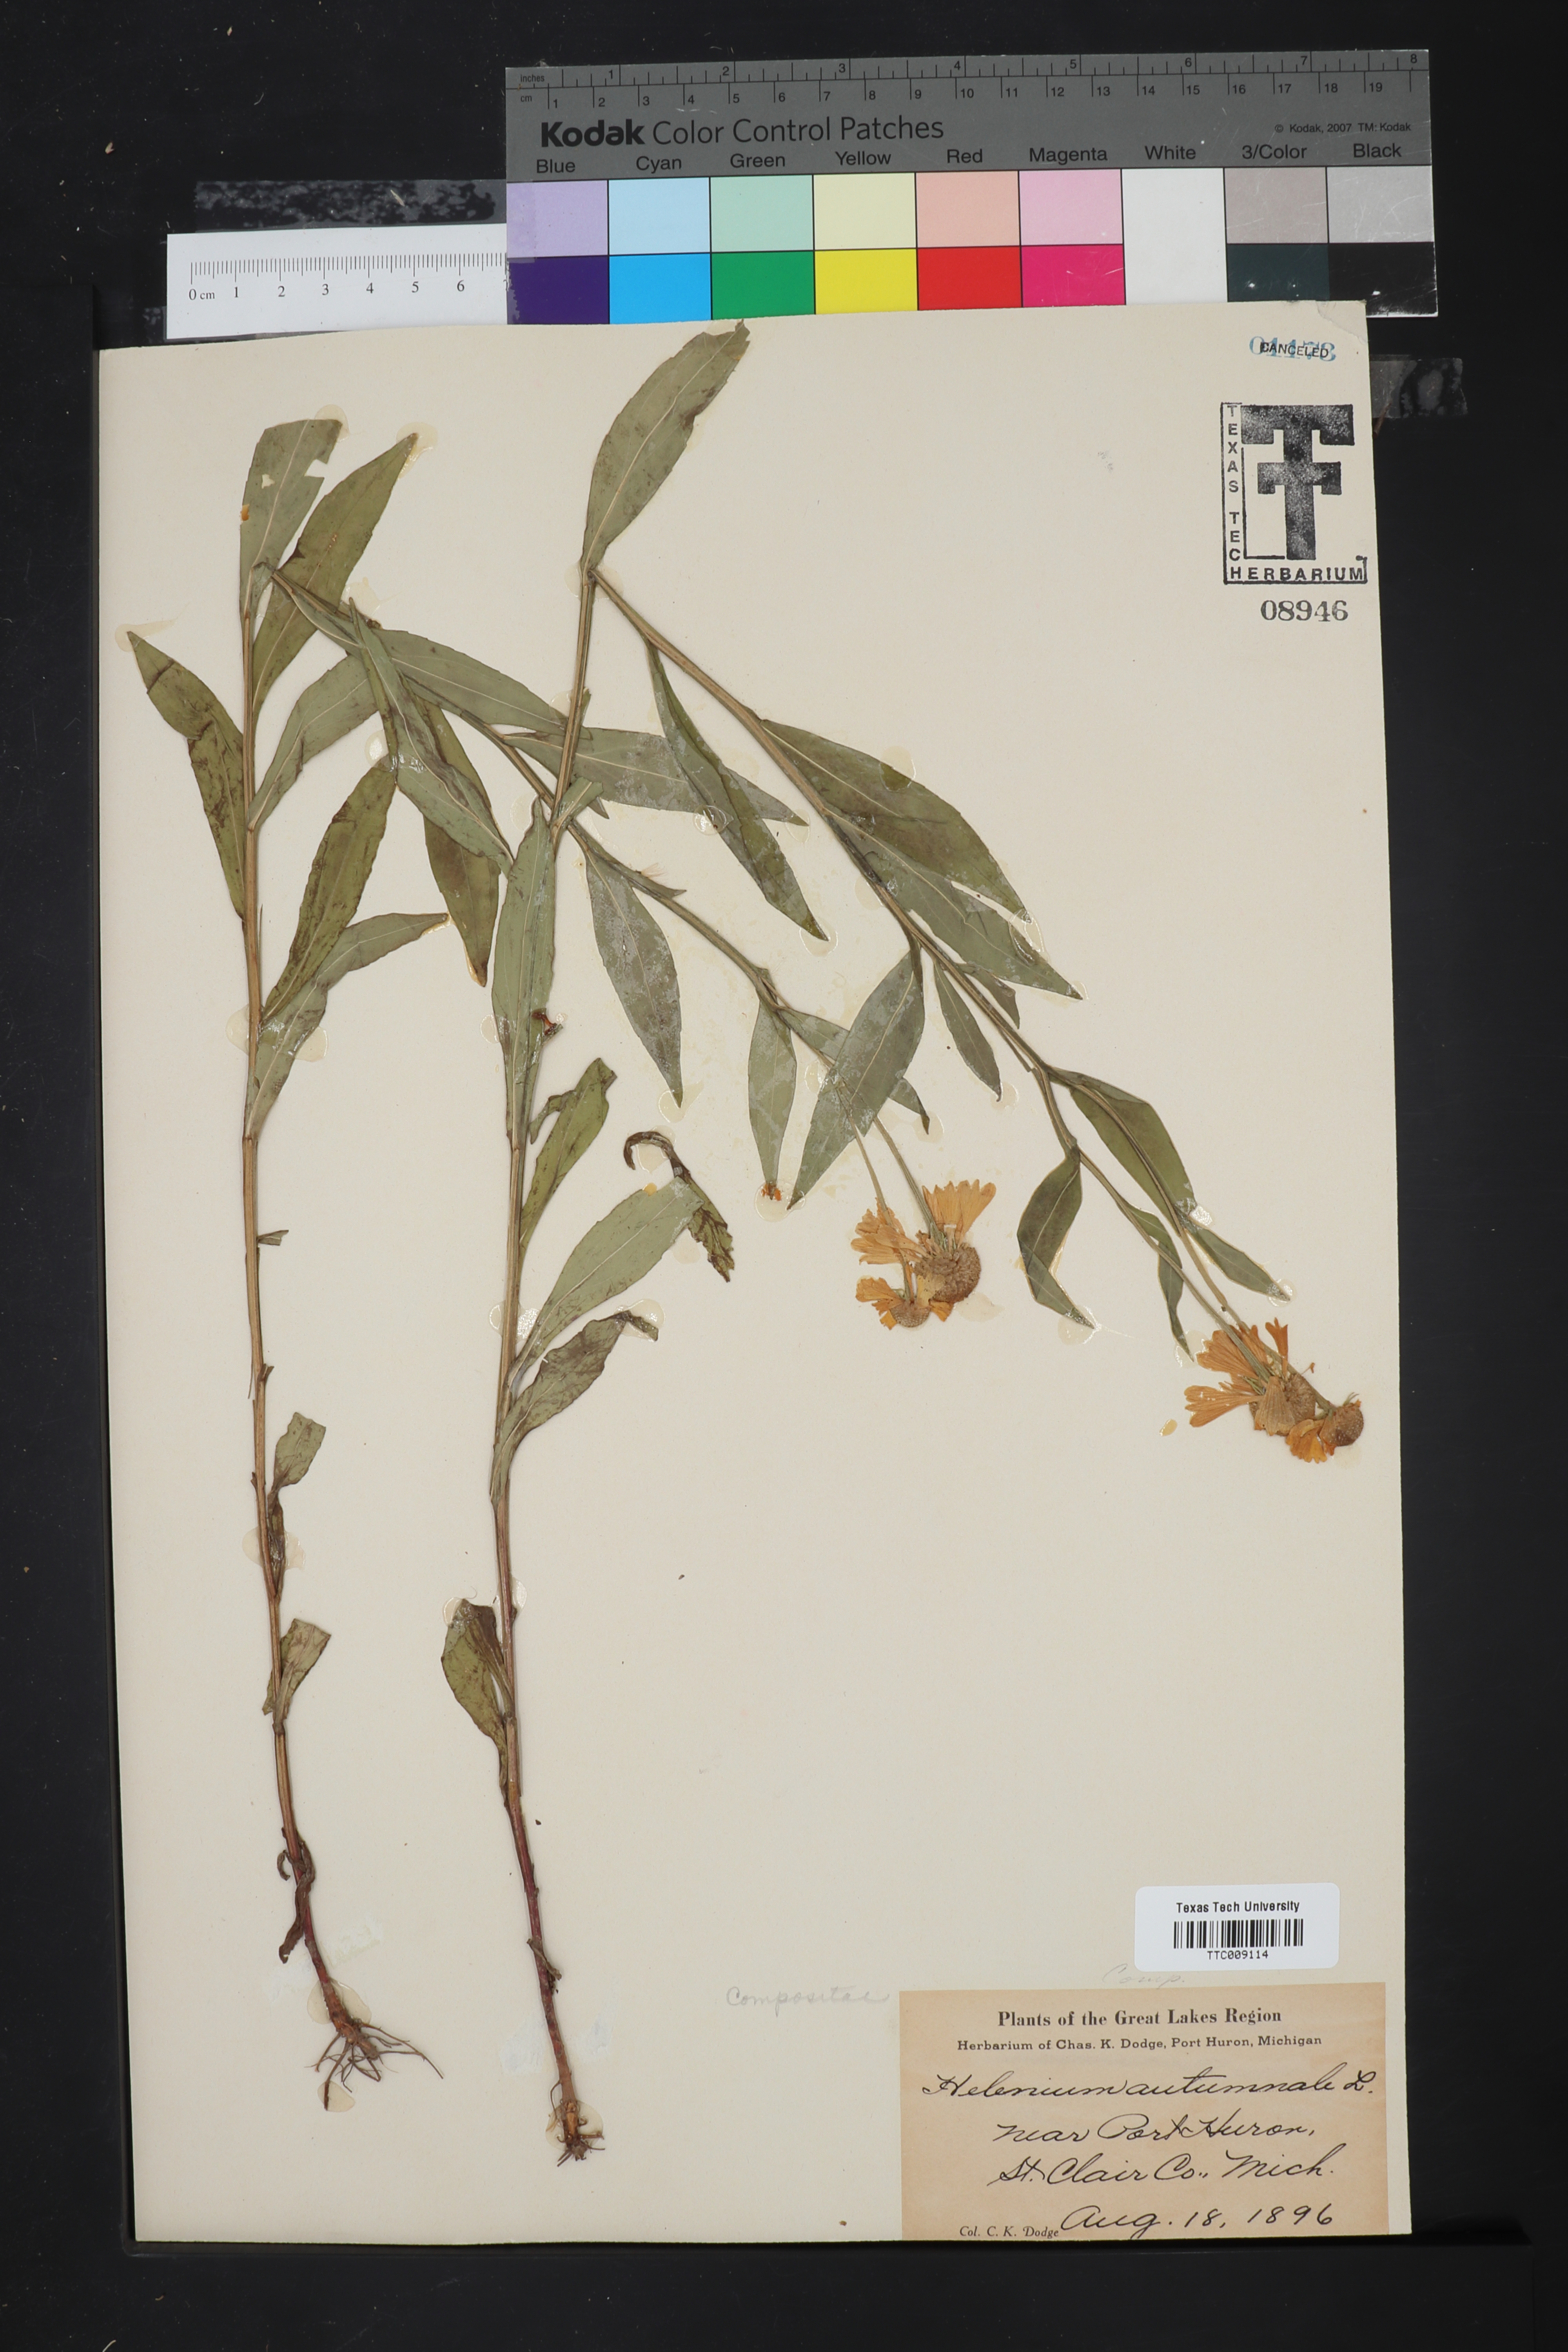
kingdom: Plantae
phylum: Tracheophyta
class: Magnoliopsida
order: Asterales
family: Asteraceae
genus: Helenium
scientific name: Helenium autumnale
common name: Sneezeweed
